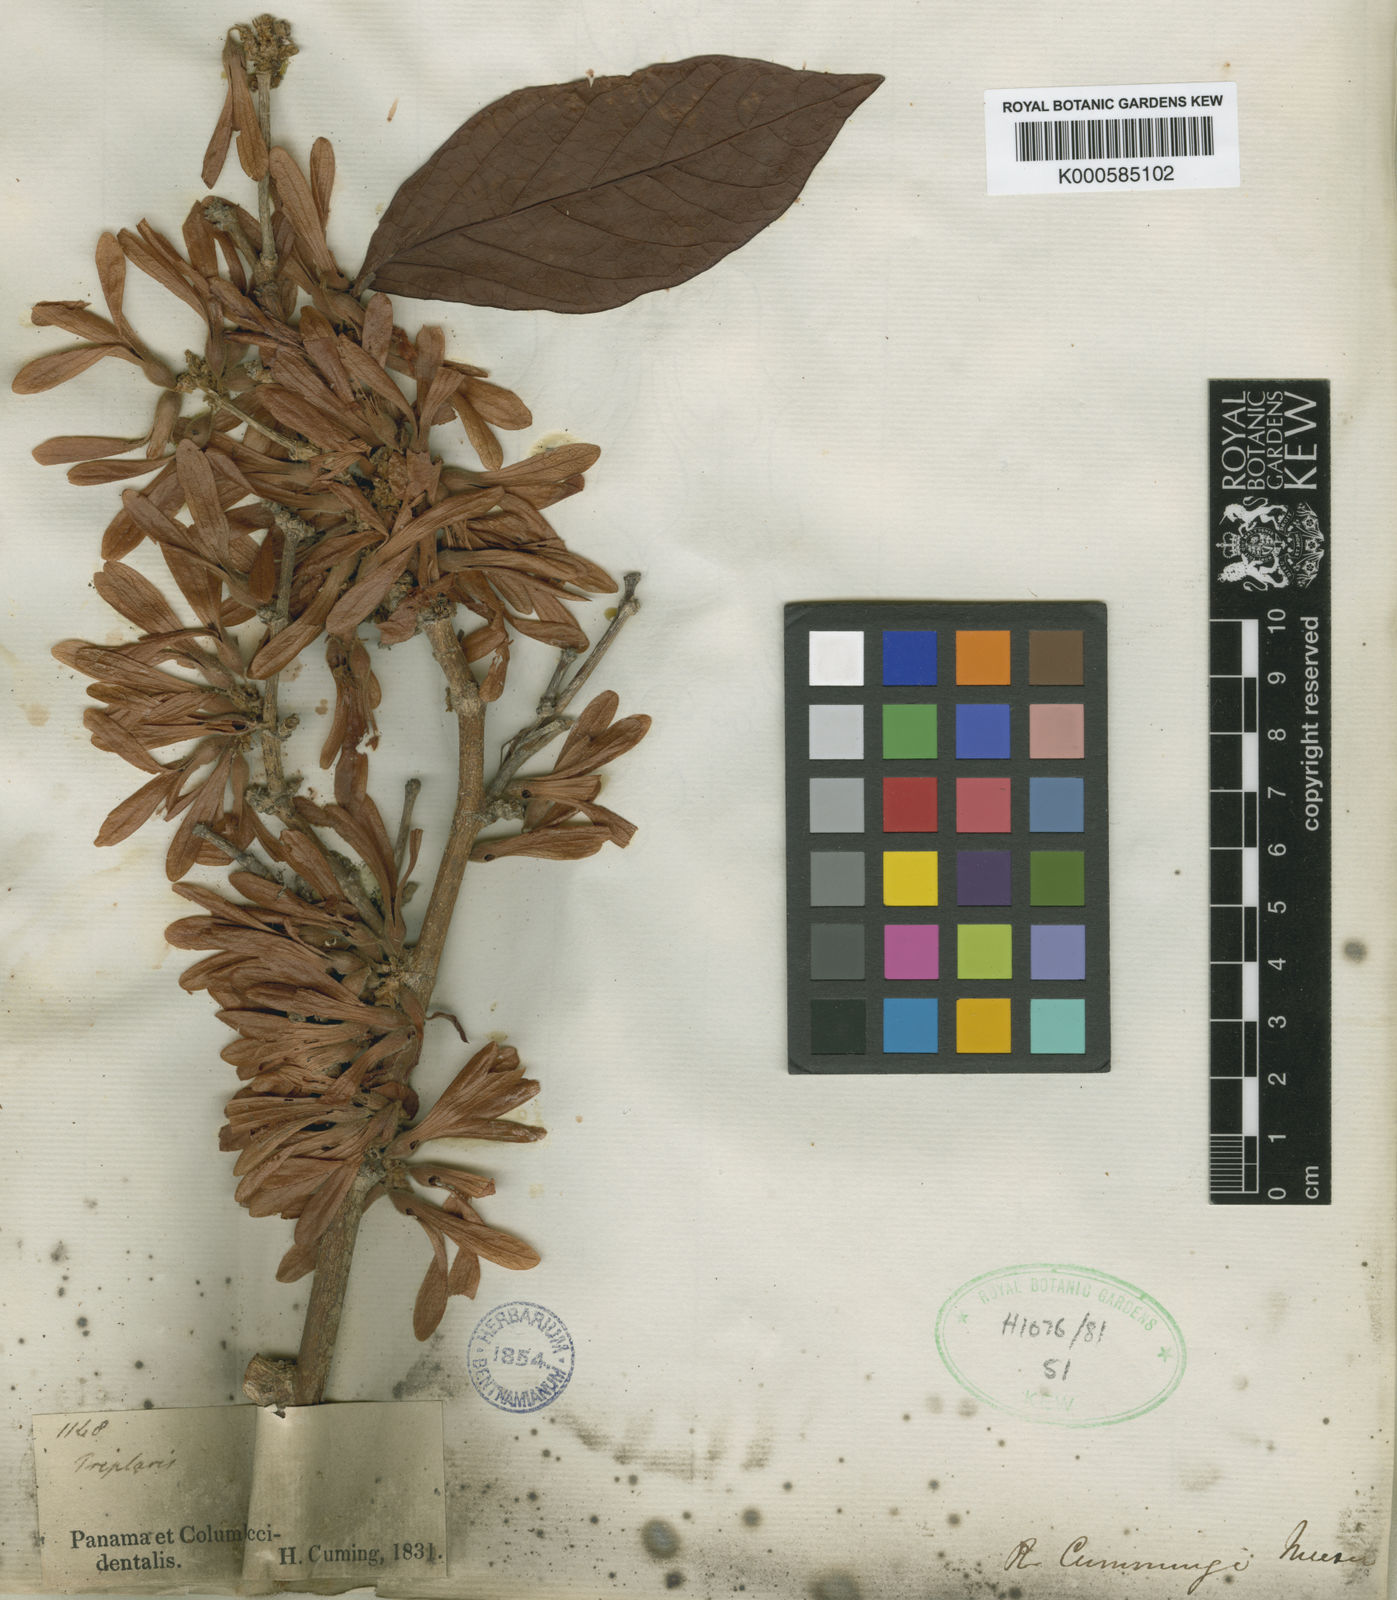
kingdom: Plantae
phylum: Tracheophyta
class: Magnoliopsida
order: Caryophyllales
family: Polygonaceae
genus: Ruprechtia
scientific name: Ruprechtia ramiflora
